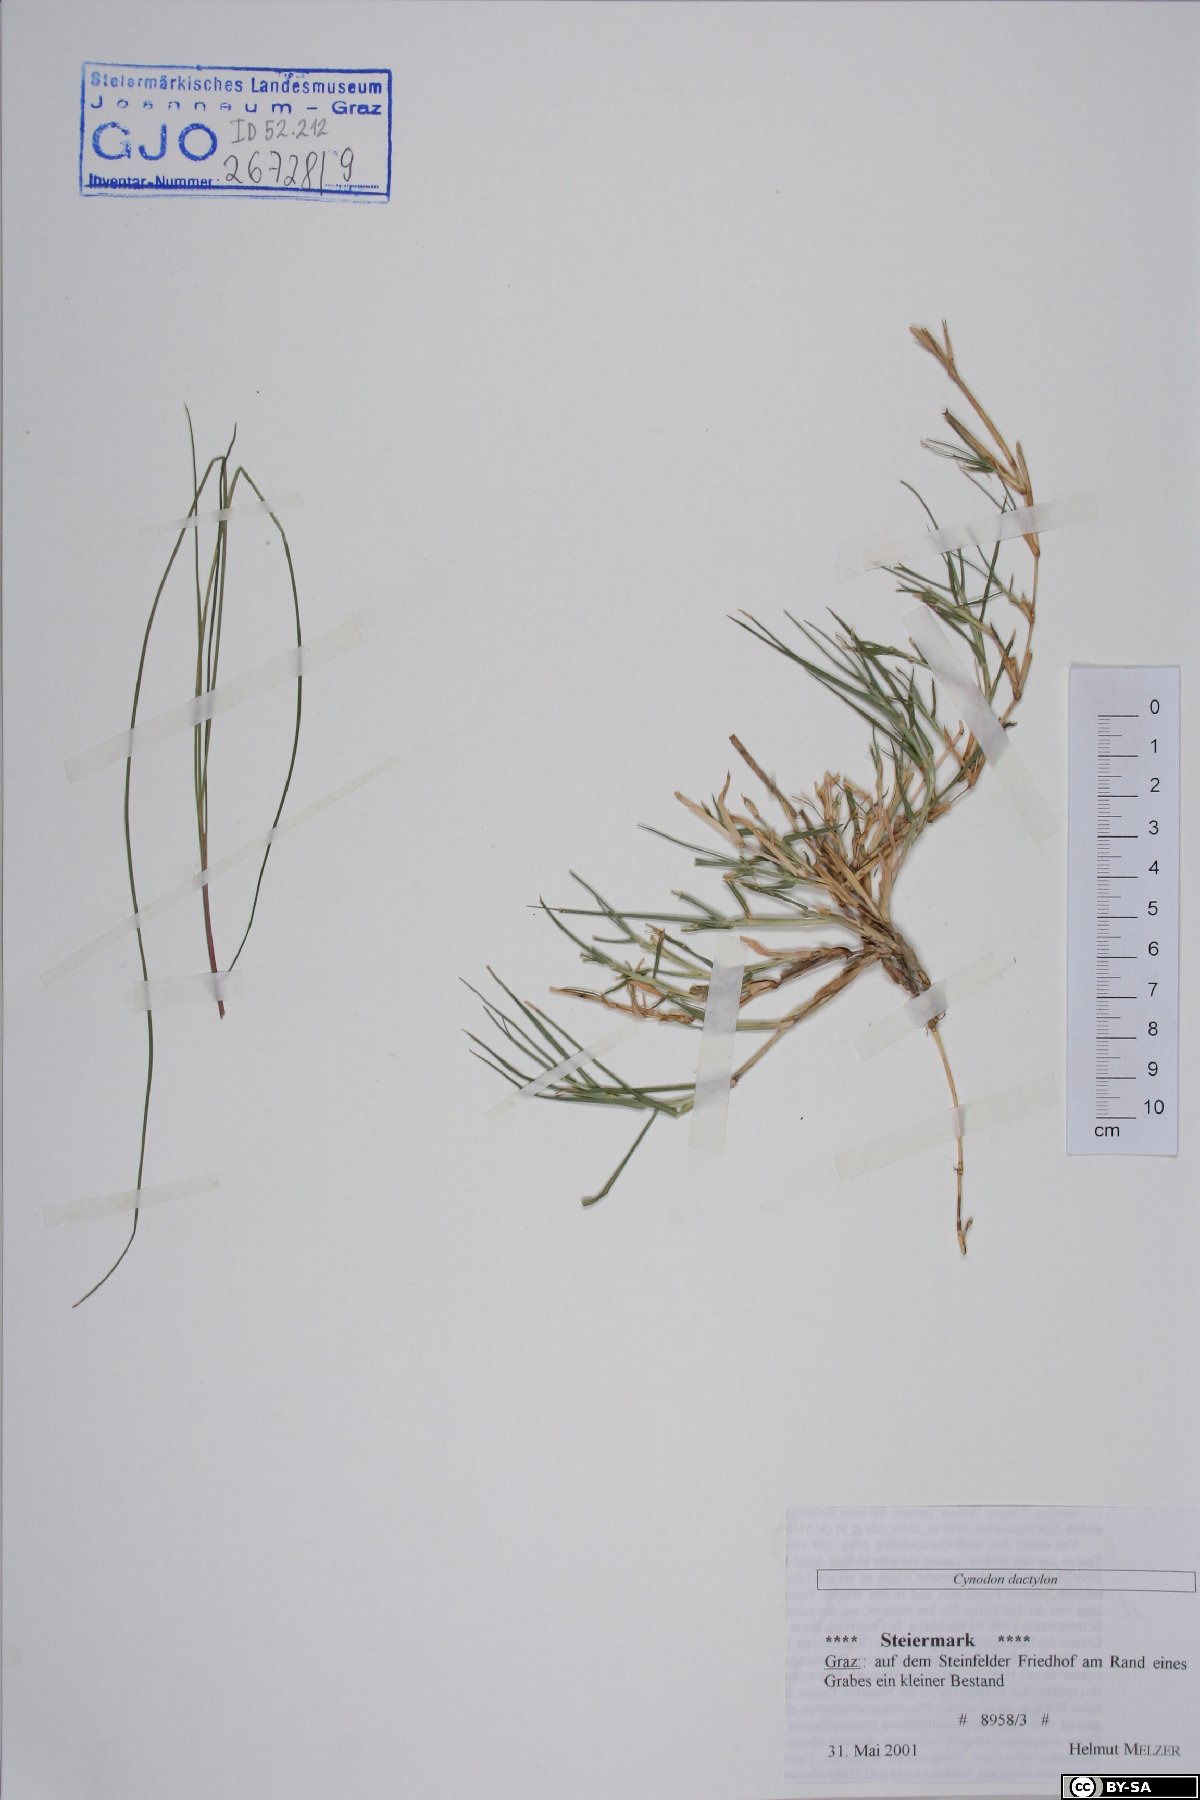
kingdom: Plantae
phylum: Tracheophyta
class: Liliopsida
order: Poales
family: Poaceae
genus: Cynodon
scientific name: Cynodon dactylon
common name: Bermuda grass
